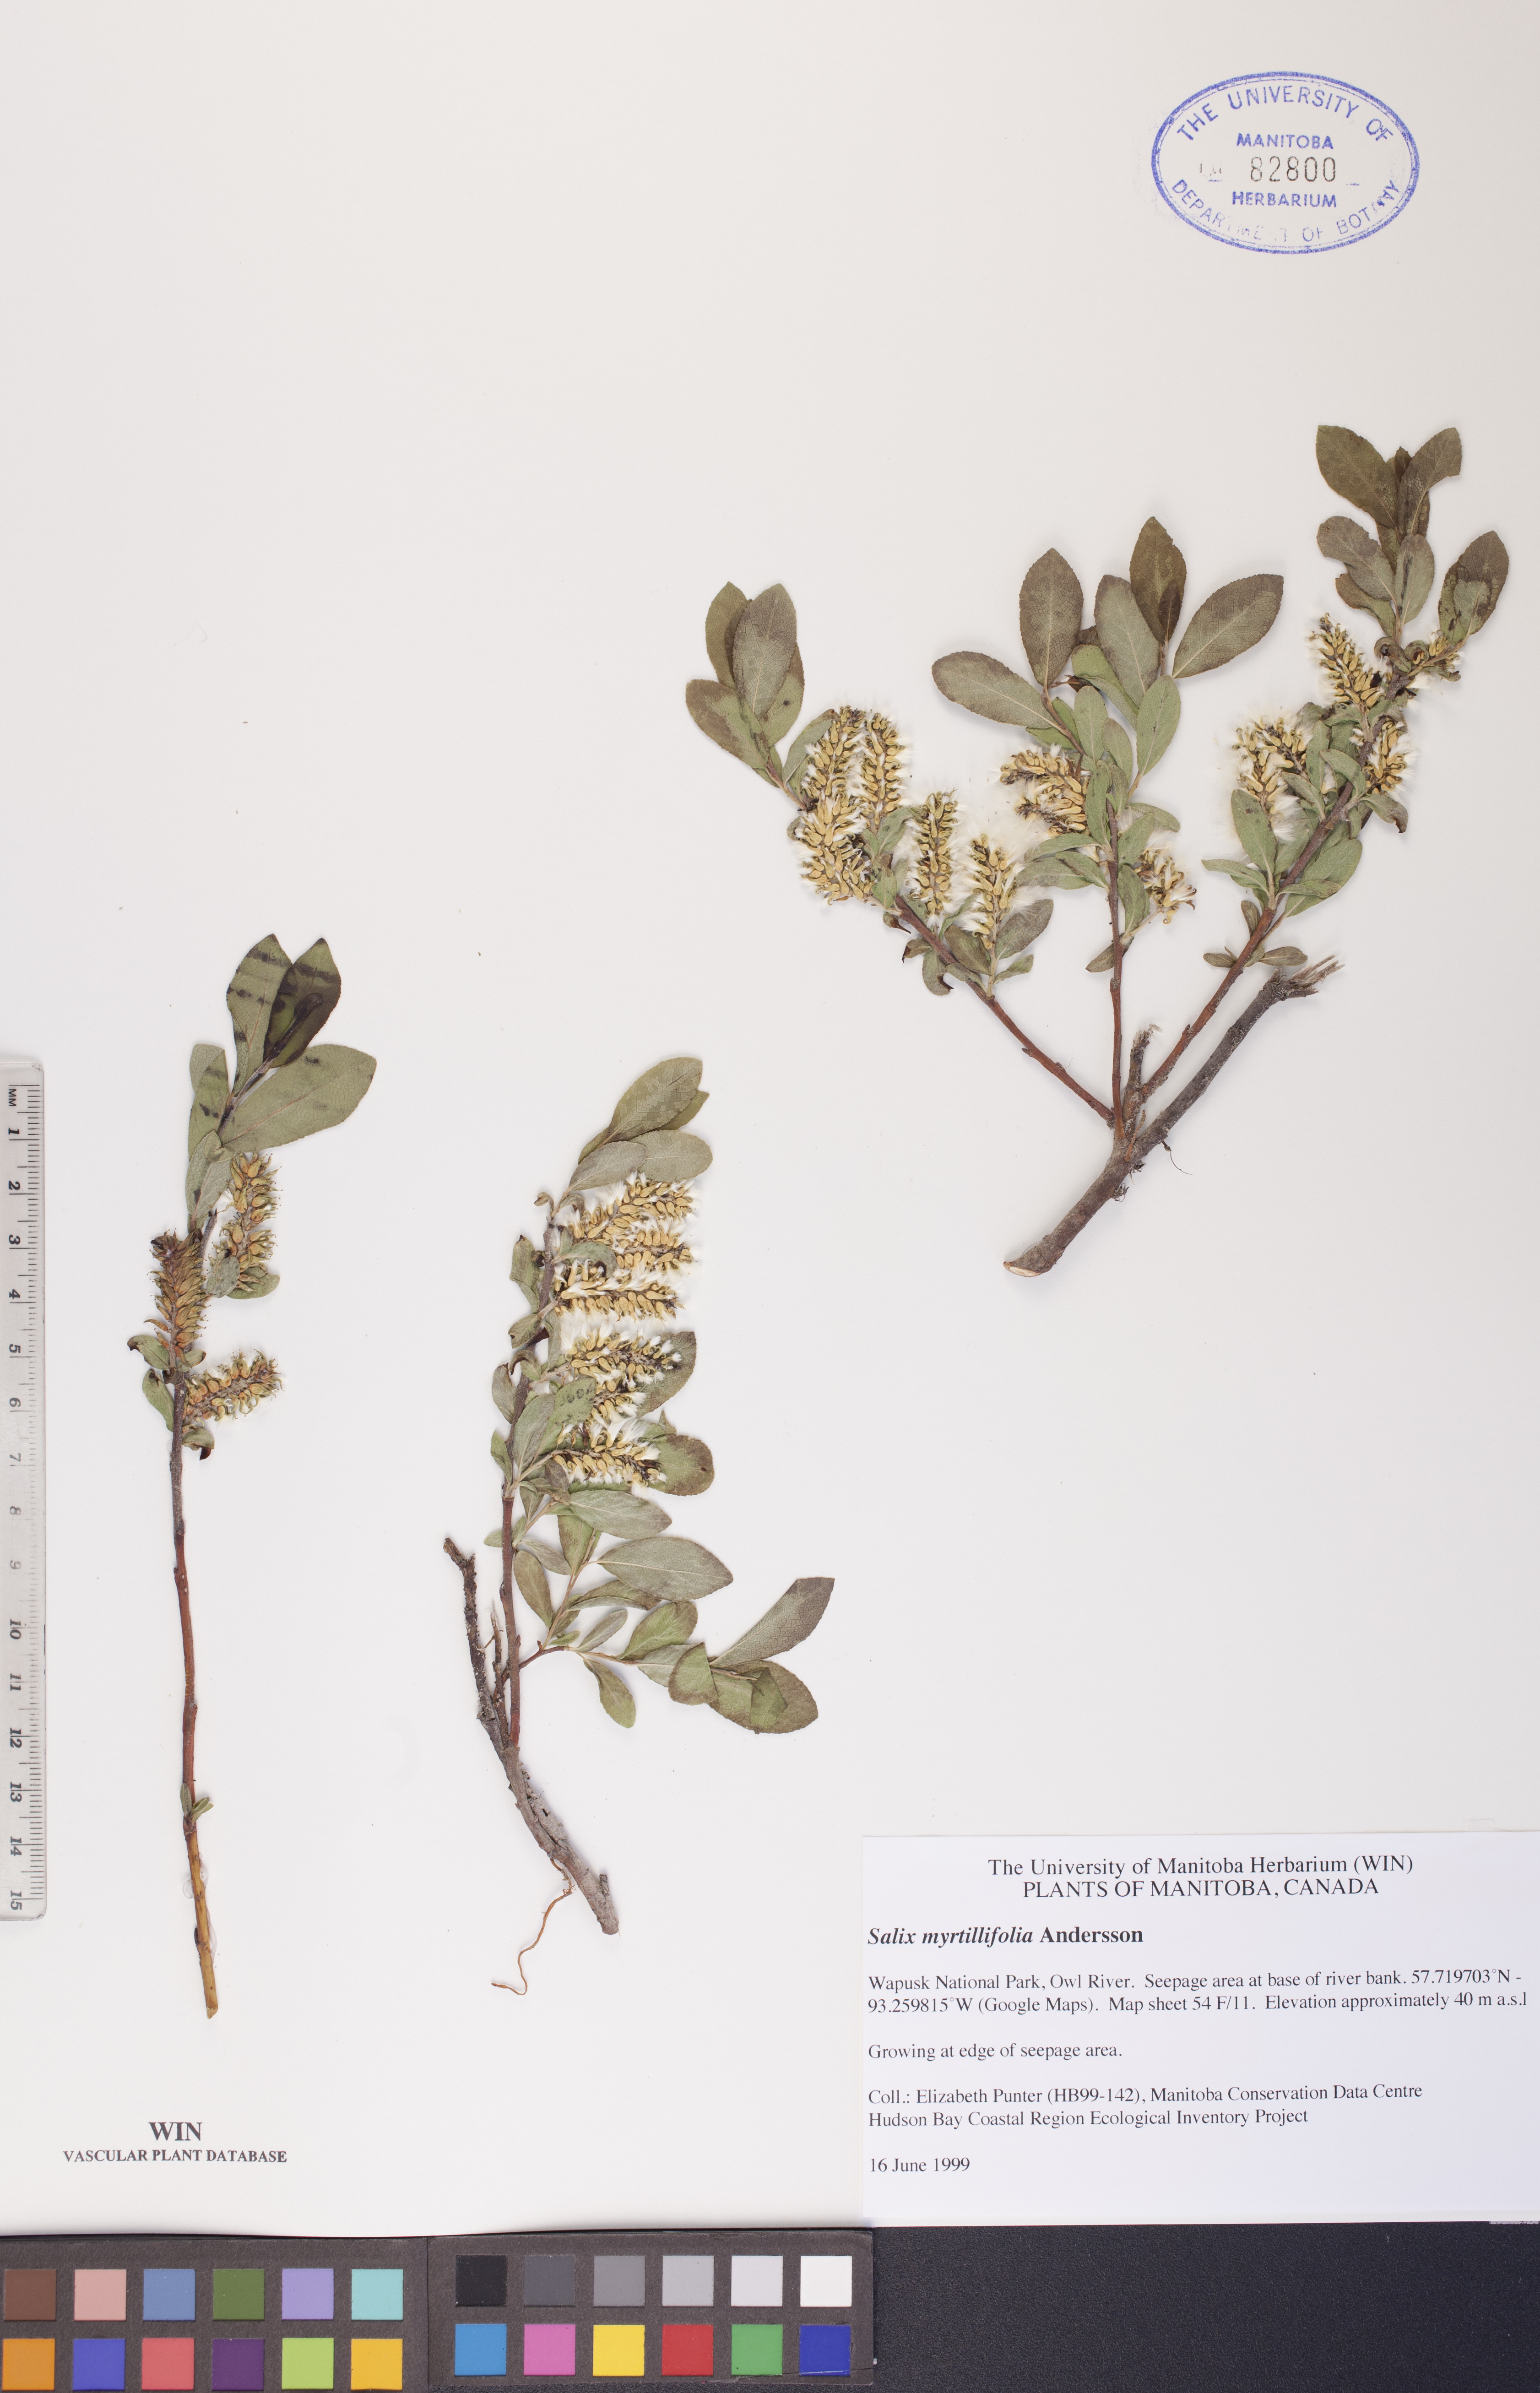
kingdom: Plantae
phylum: Tracheophyta
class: Magnoliopsida
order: Malpighiales
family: Salicaceae
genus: Salix
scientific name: Salix myrtillifolia
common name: Bilberry willow
